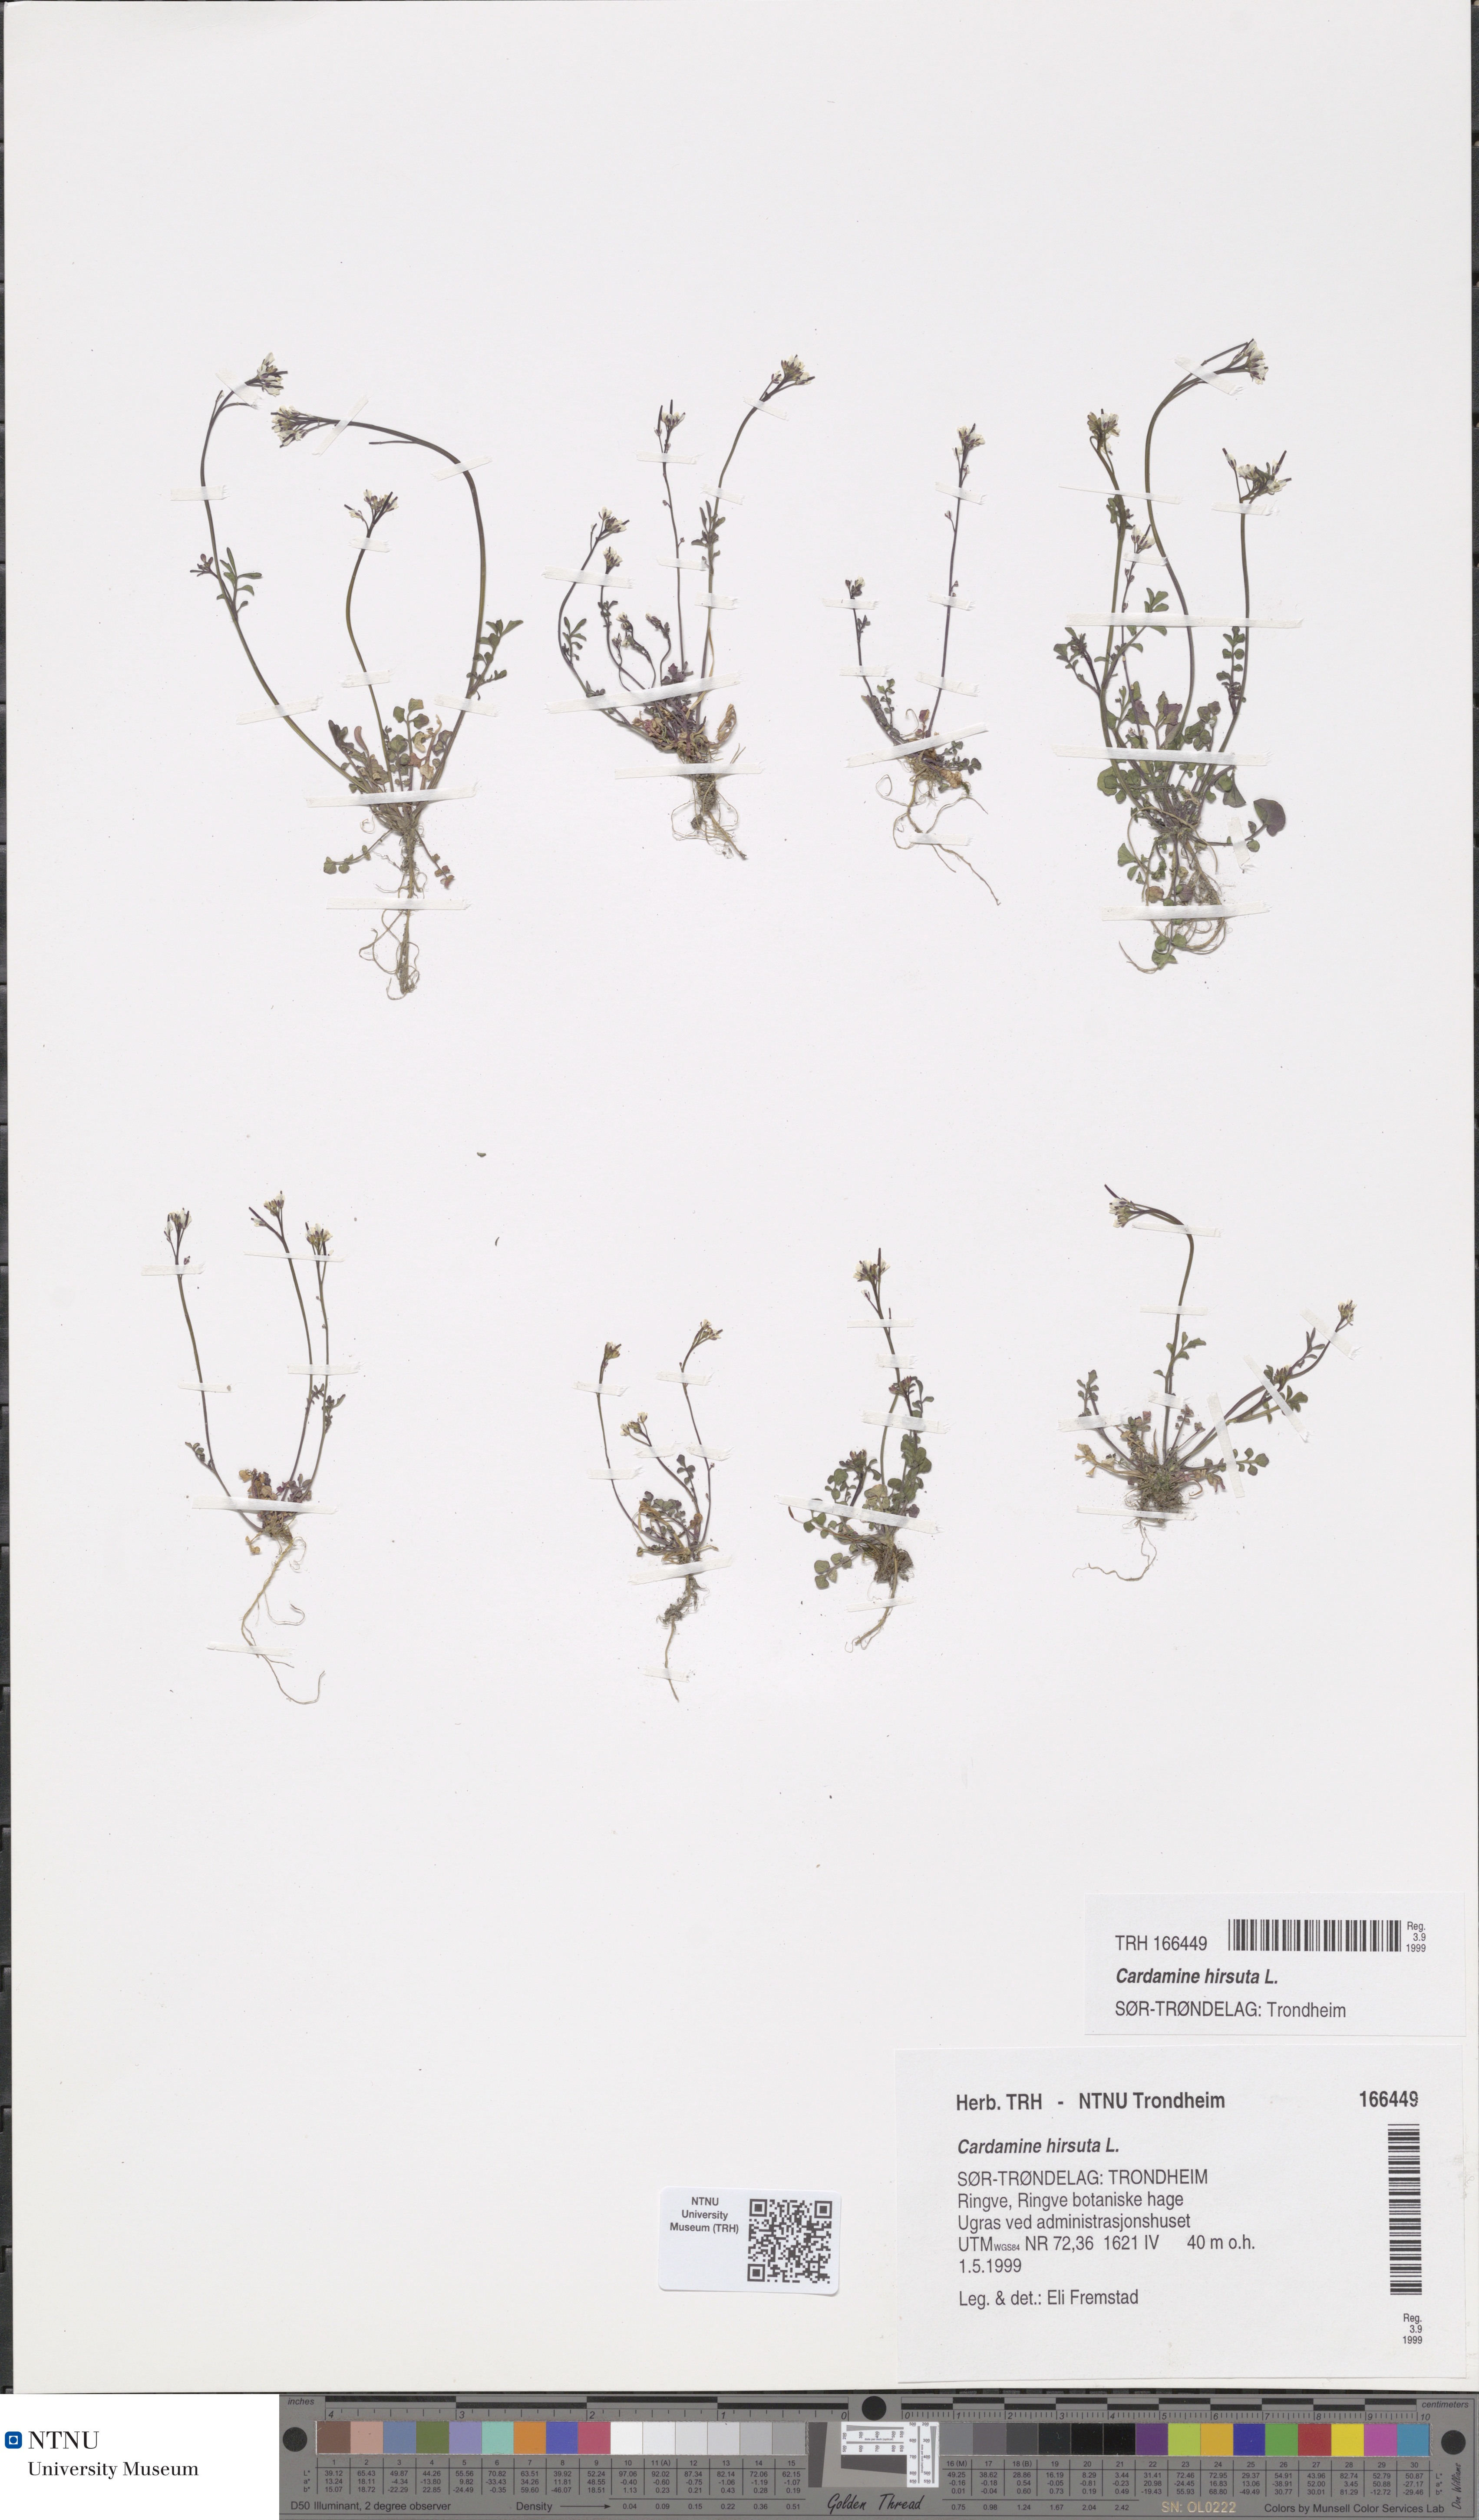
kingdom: Plantae
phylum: Tracheophyta
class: Magnoliopsida
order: Brassicales
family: Brassicaceae
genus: Cardamine
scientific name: Cardamine hirsuta
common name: Hairy bittercress
